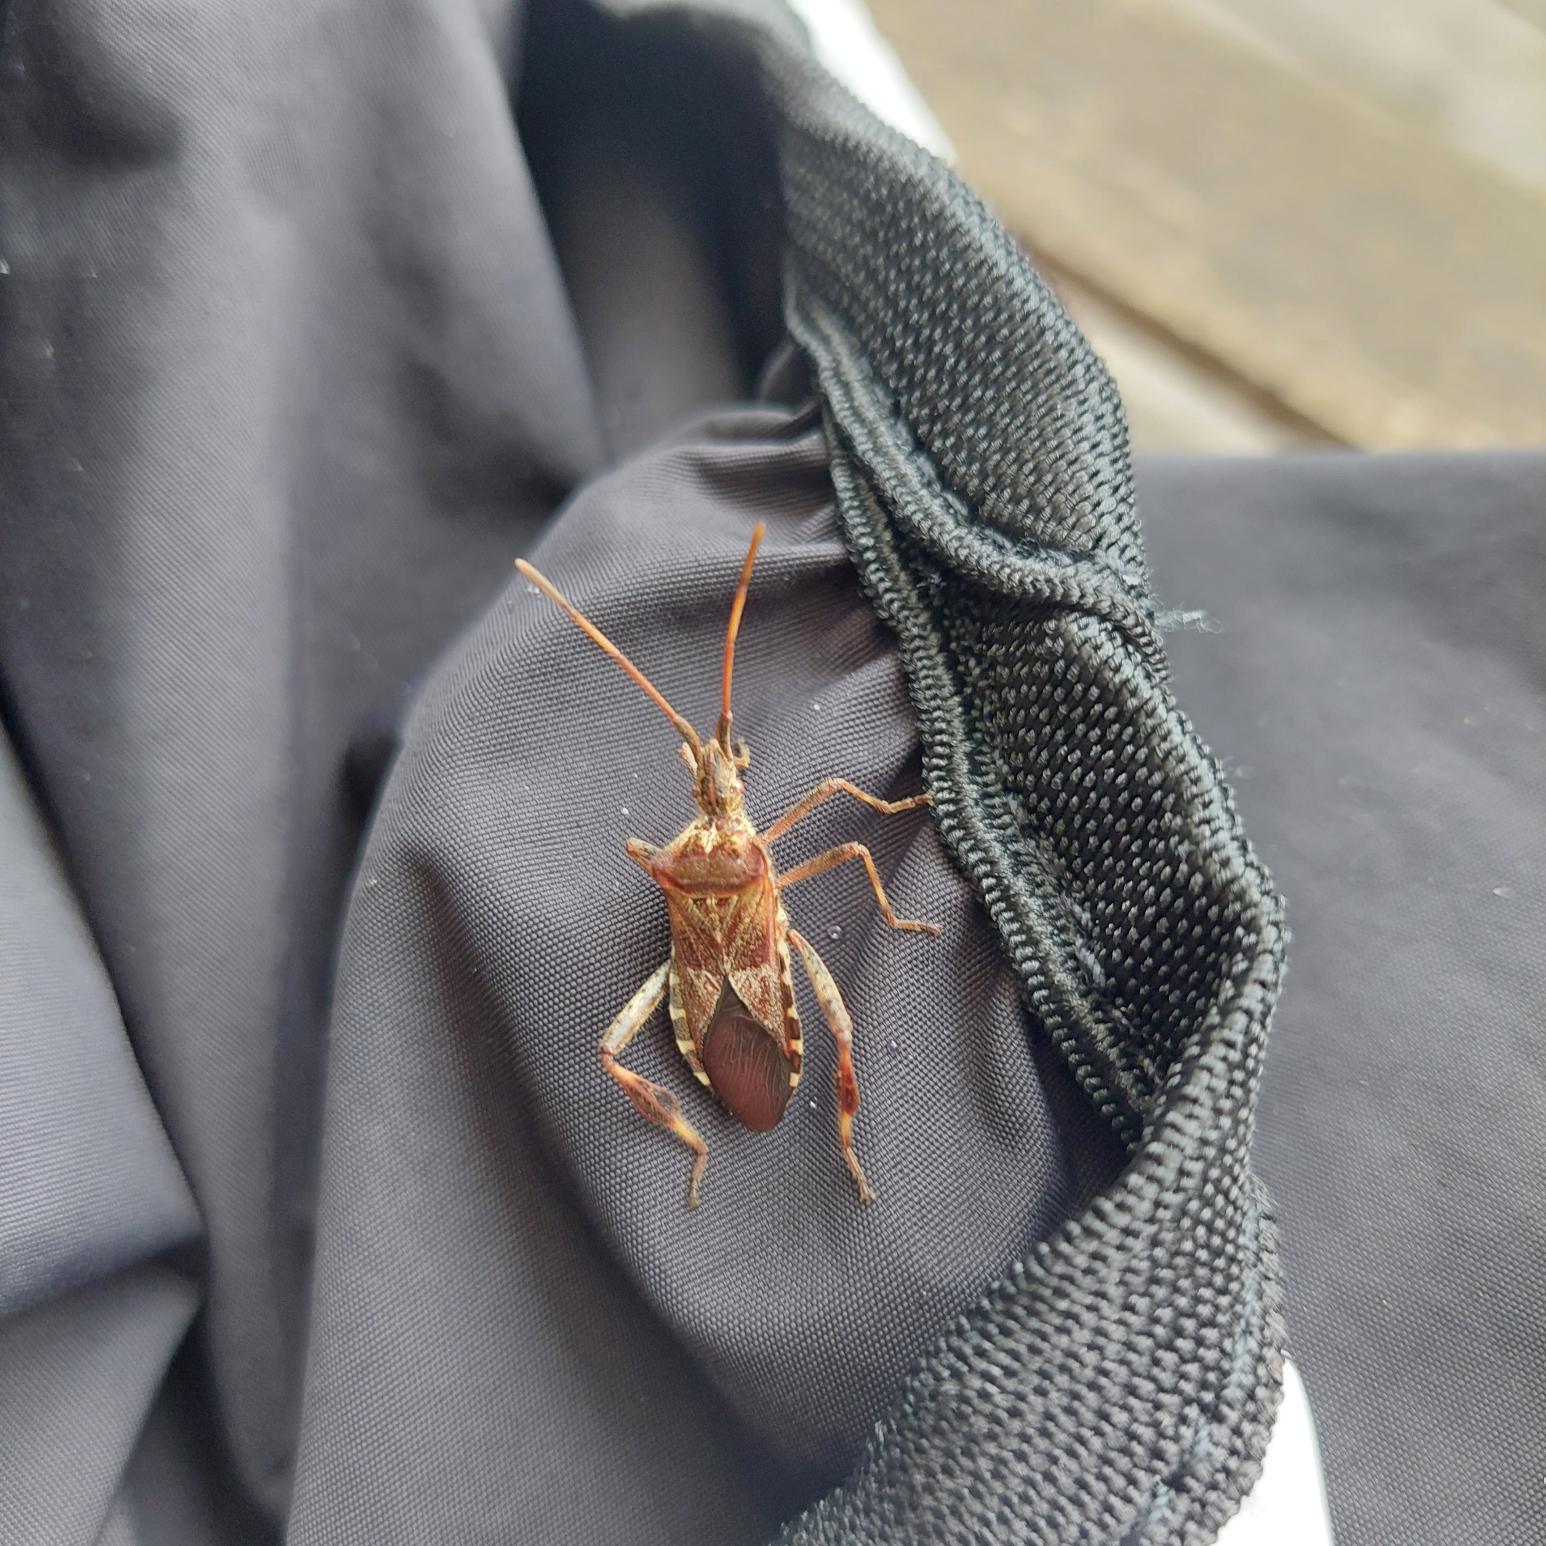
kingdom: Animalia
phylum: Arthropoda
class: Insecta
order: Hemiptera
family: Coreidae
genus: Leptoglossus
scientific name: Leptoglossus occidentalis
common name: Amerikansk fyrretæge
